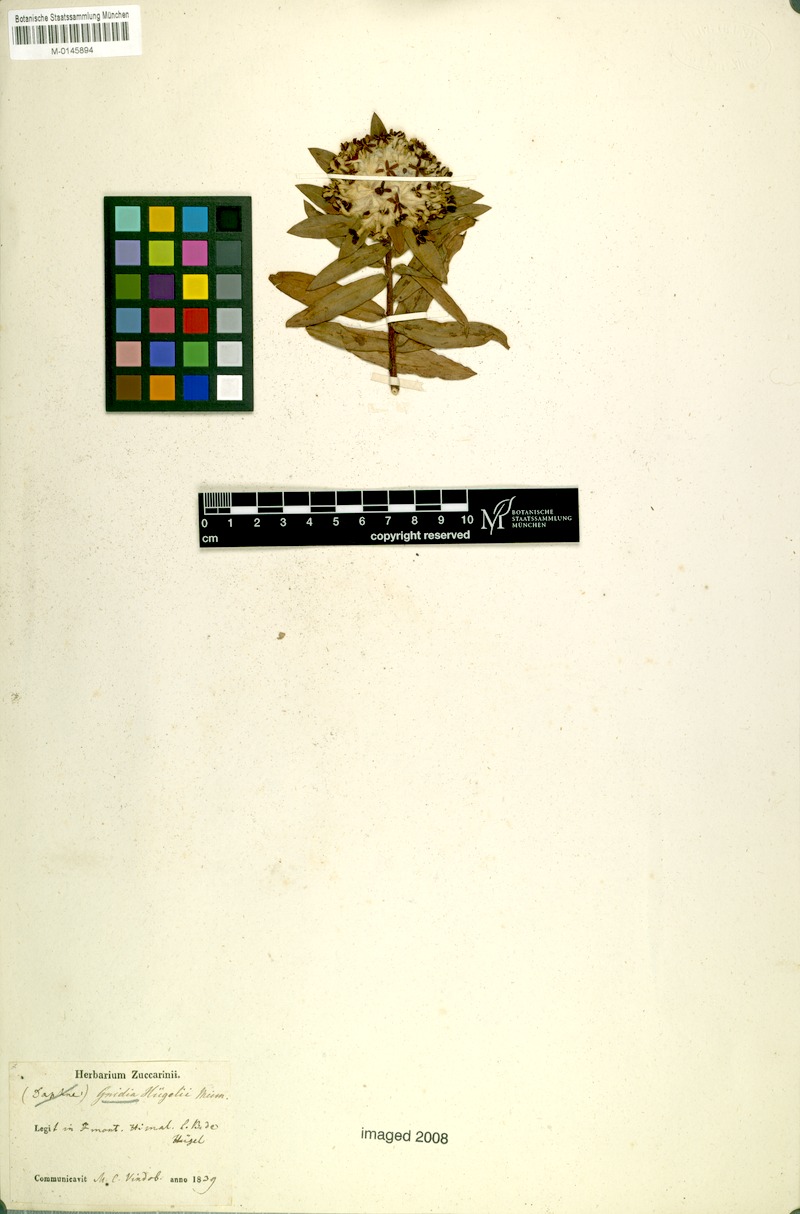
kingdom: Plantae
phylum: Tracheophyta
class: Magnoliopsida
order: Malvales
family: Thymelaeaceae
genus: Gnidia
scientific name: Gnidia glauca
